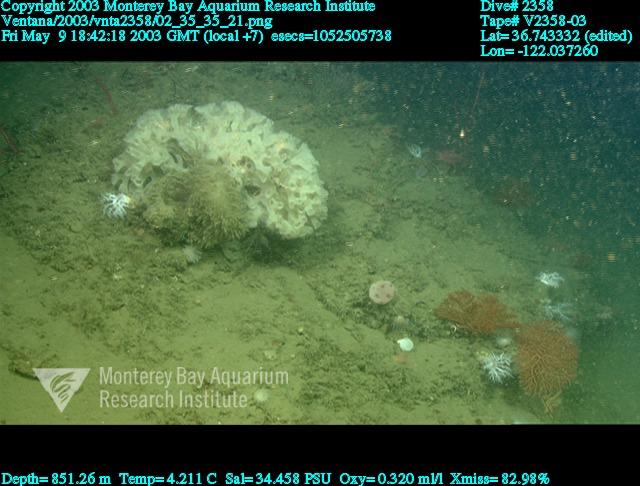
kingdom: Animalia
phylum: Porifera
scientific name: Porifera
